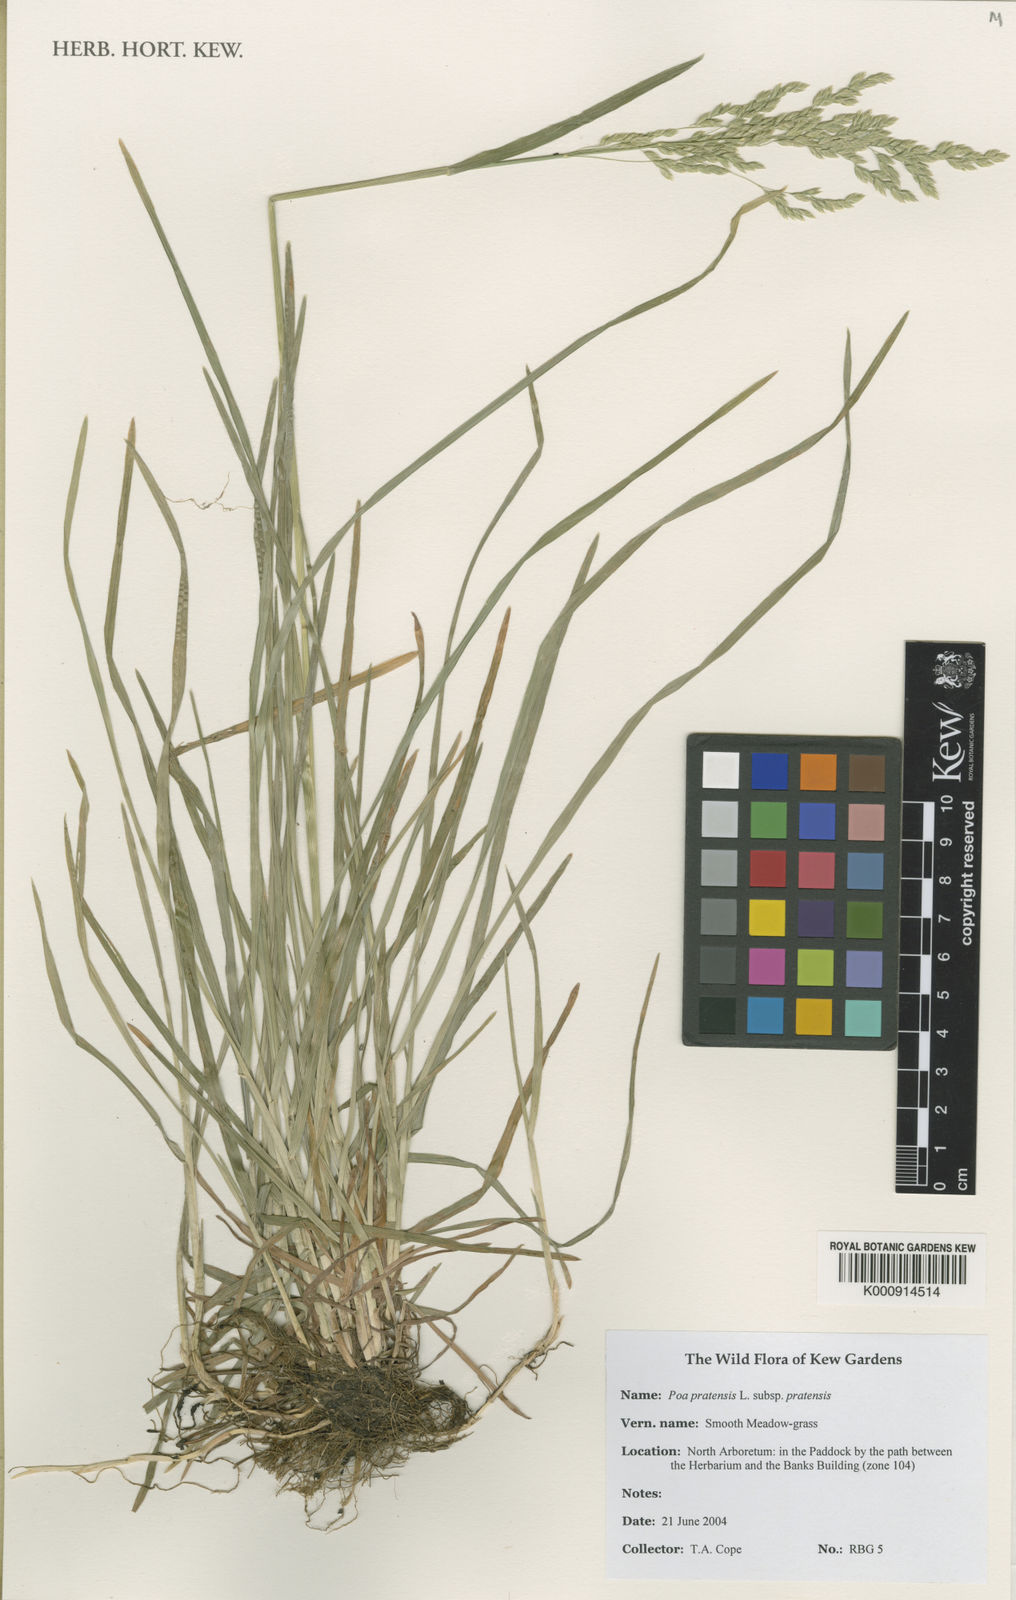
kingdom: Plantae
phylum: Tracheophyta
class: Liliopsida
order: Poales
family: Poaceae
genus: Poa
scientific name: Poa pratensis
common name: Kentucky bluegrass
